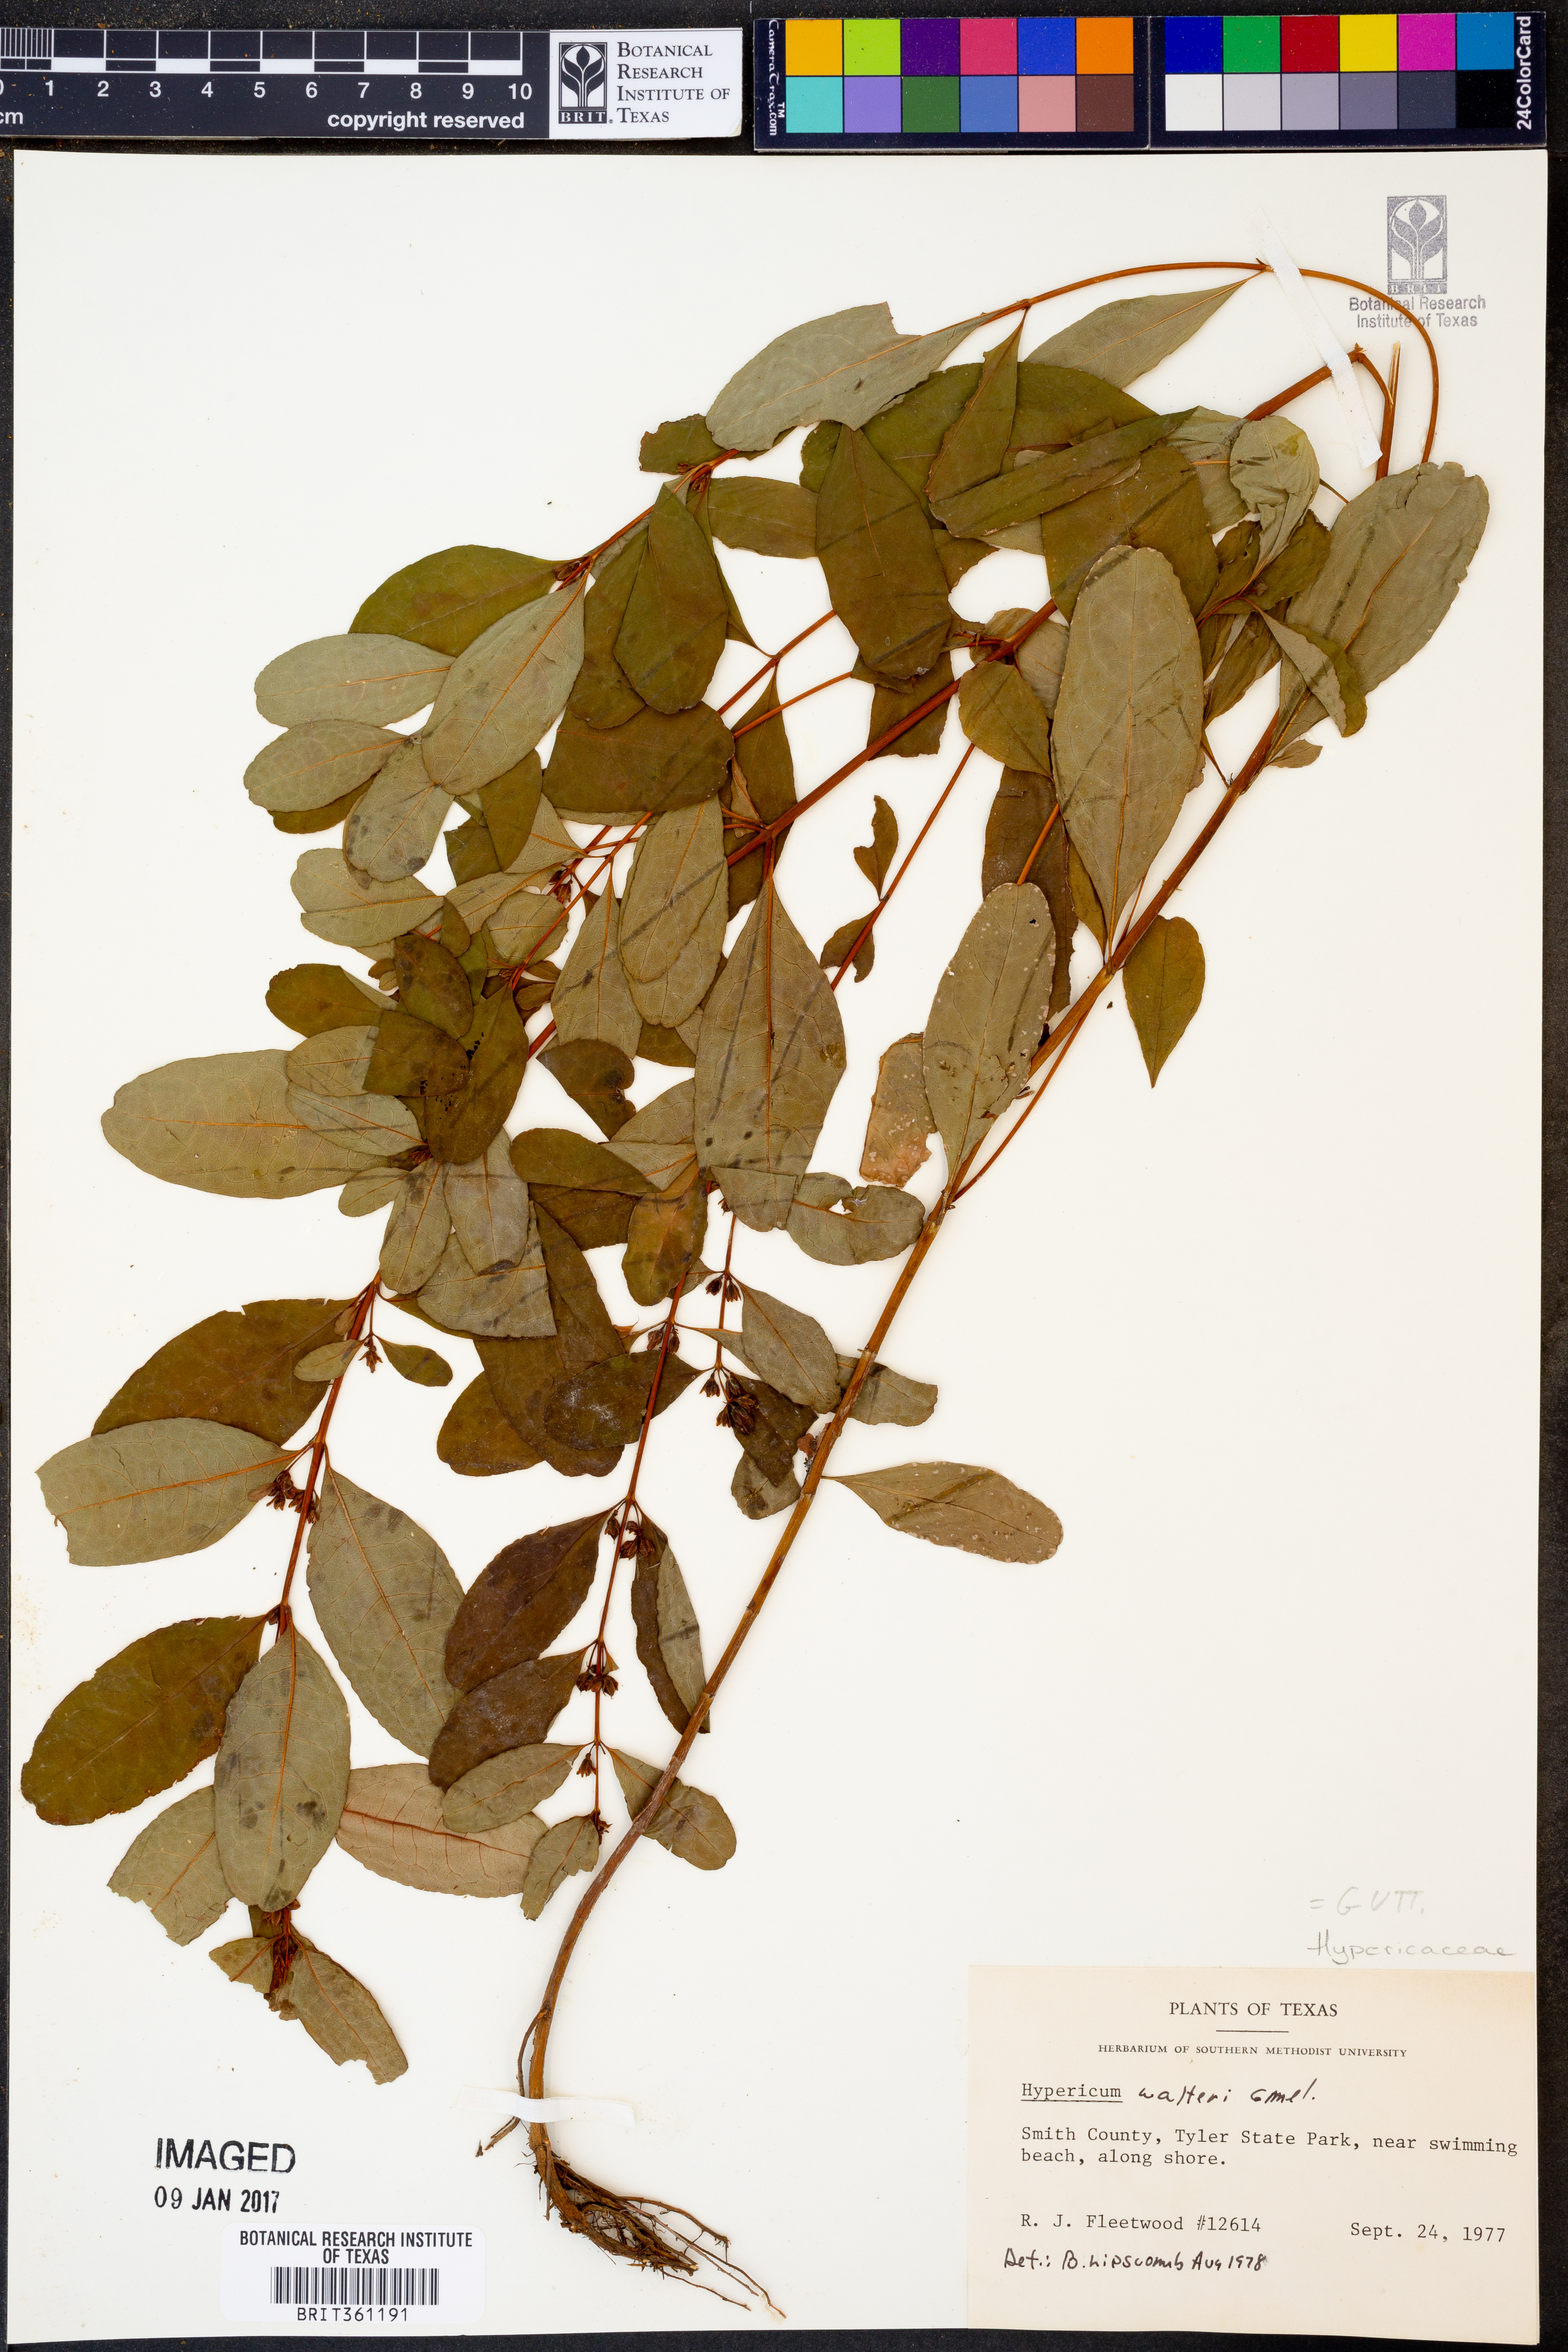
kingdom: Plantae
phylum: Tracheophyta
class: Magnoliopsida
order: Malpighiales
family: Hypericaceae
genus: Triadenum
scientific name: Triadenum walteri
